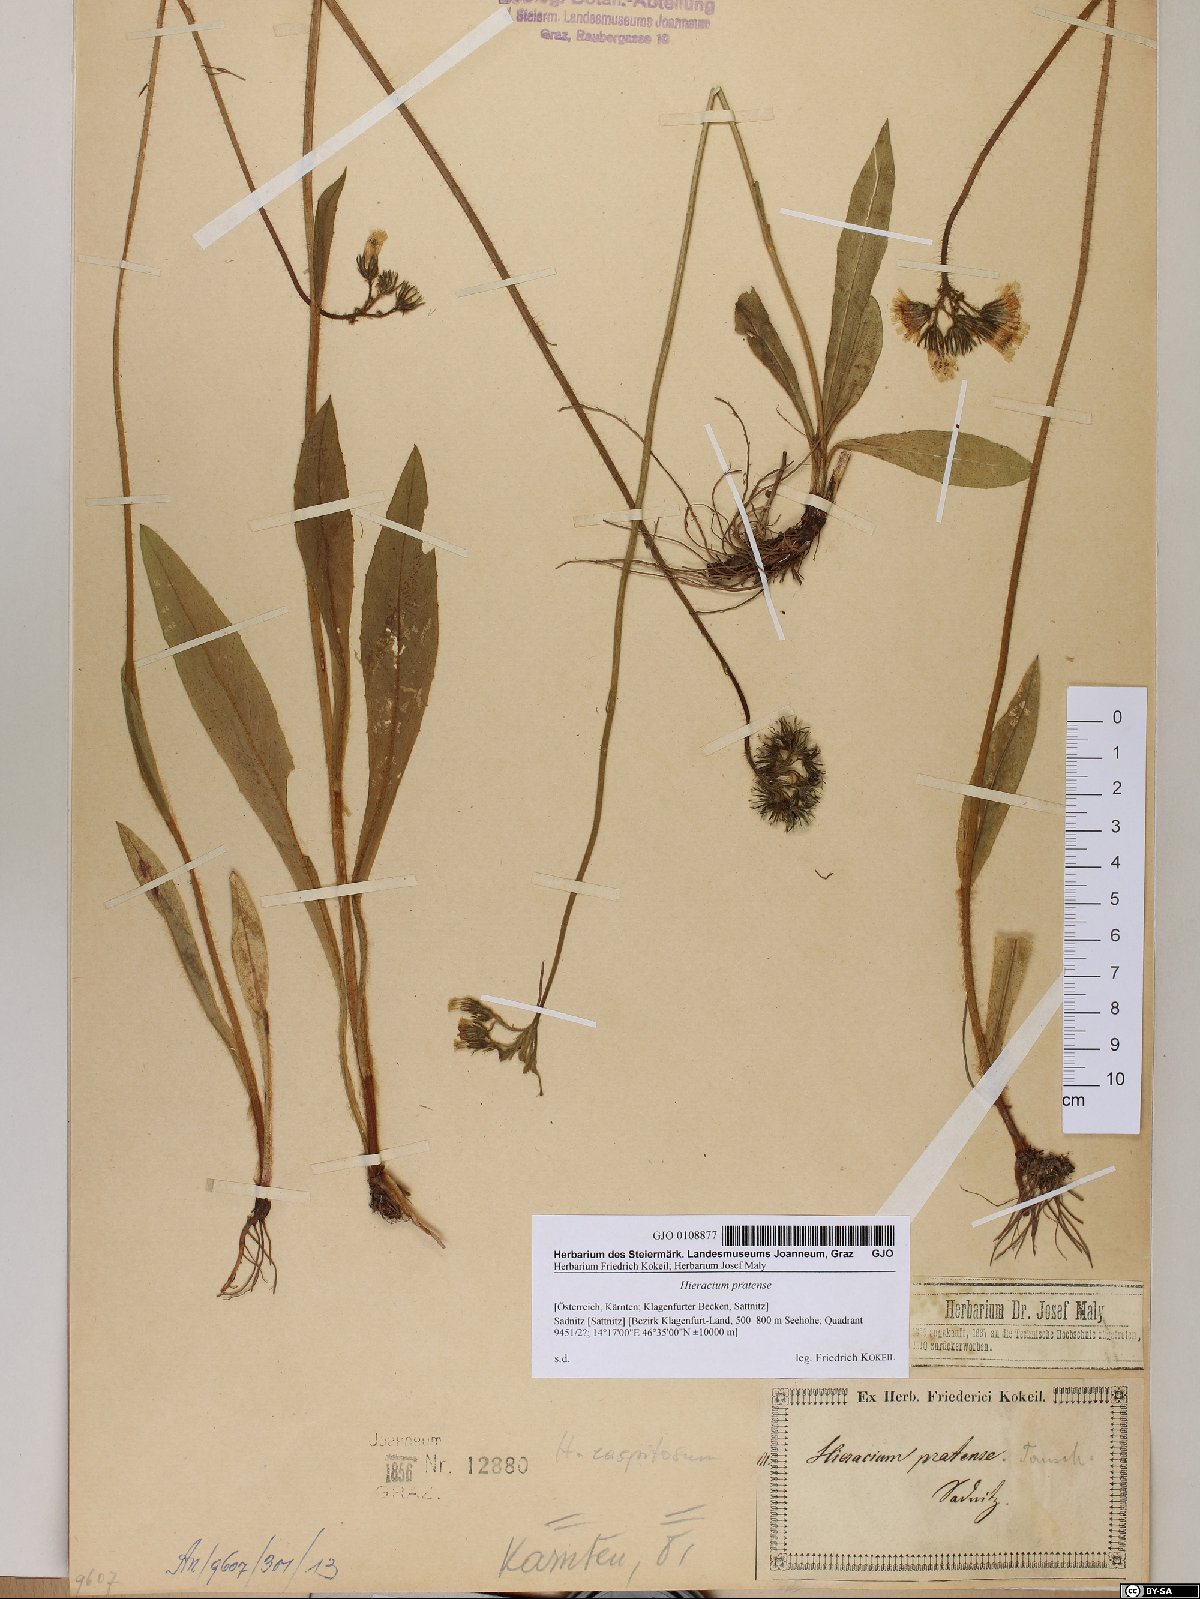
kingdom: Plantae
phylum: Tracheophyta
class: Magnoliopsida
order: Asterales
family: Asteraceae
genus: Pilosella
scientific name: Pilosella caespitosa
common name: Yellow fox-and-cubs
